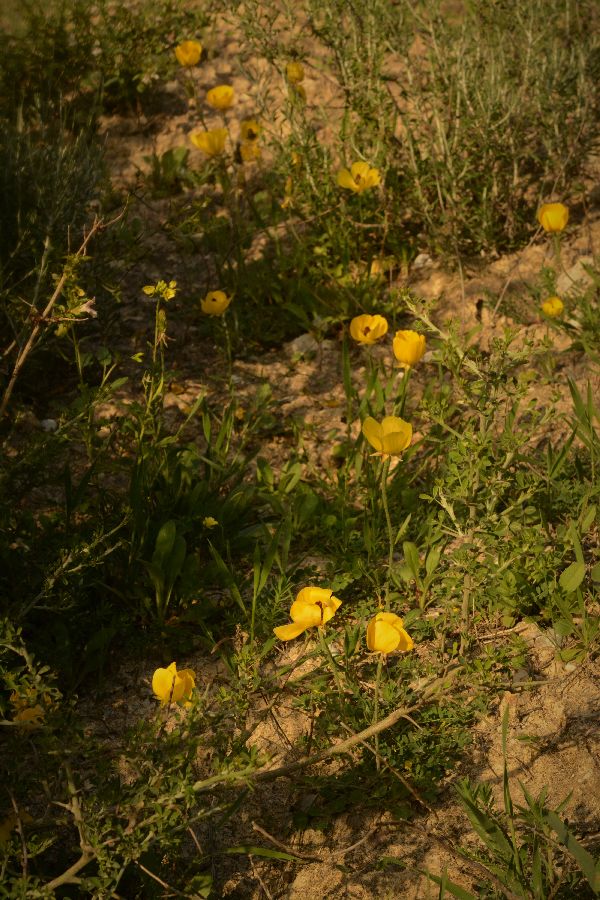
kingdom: Plantae
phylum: Tracheophyta
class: Magnoliopsida
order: Ranunculales
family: Ranunculaceae
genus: Ranunculus
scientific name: Ranunculus asiaticus
